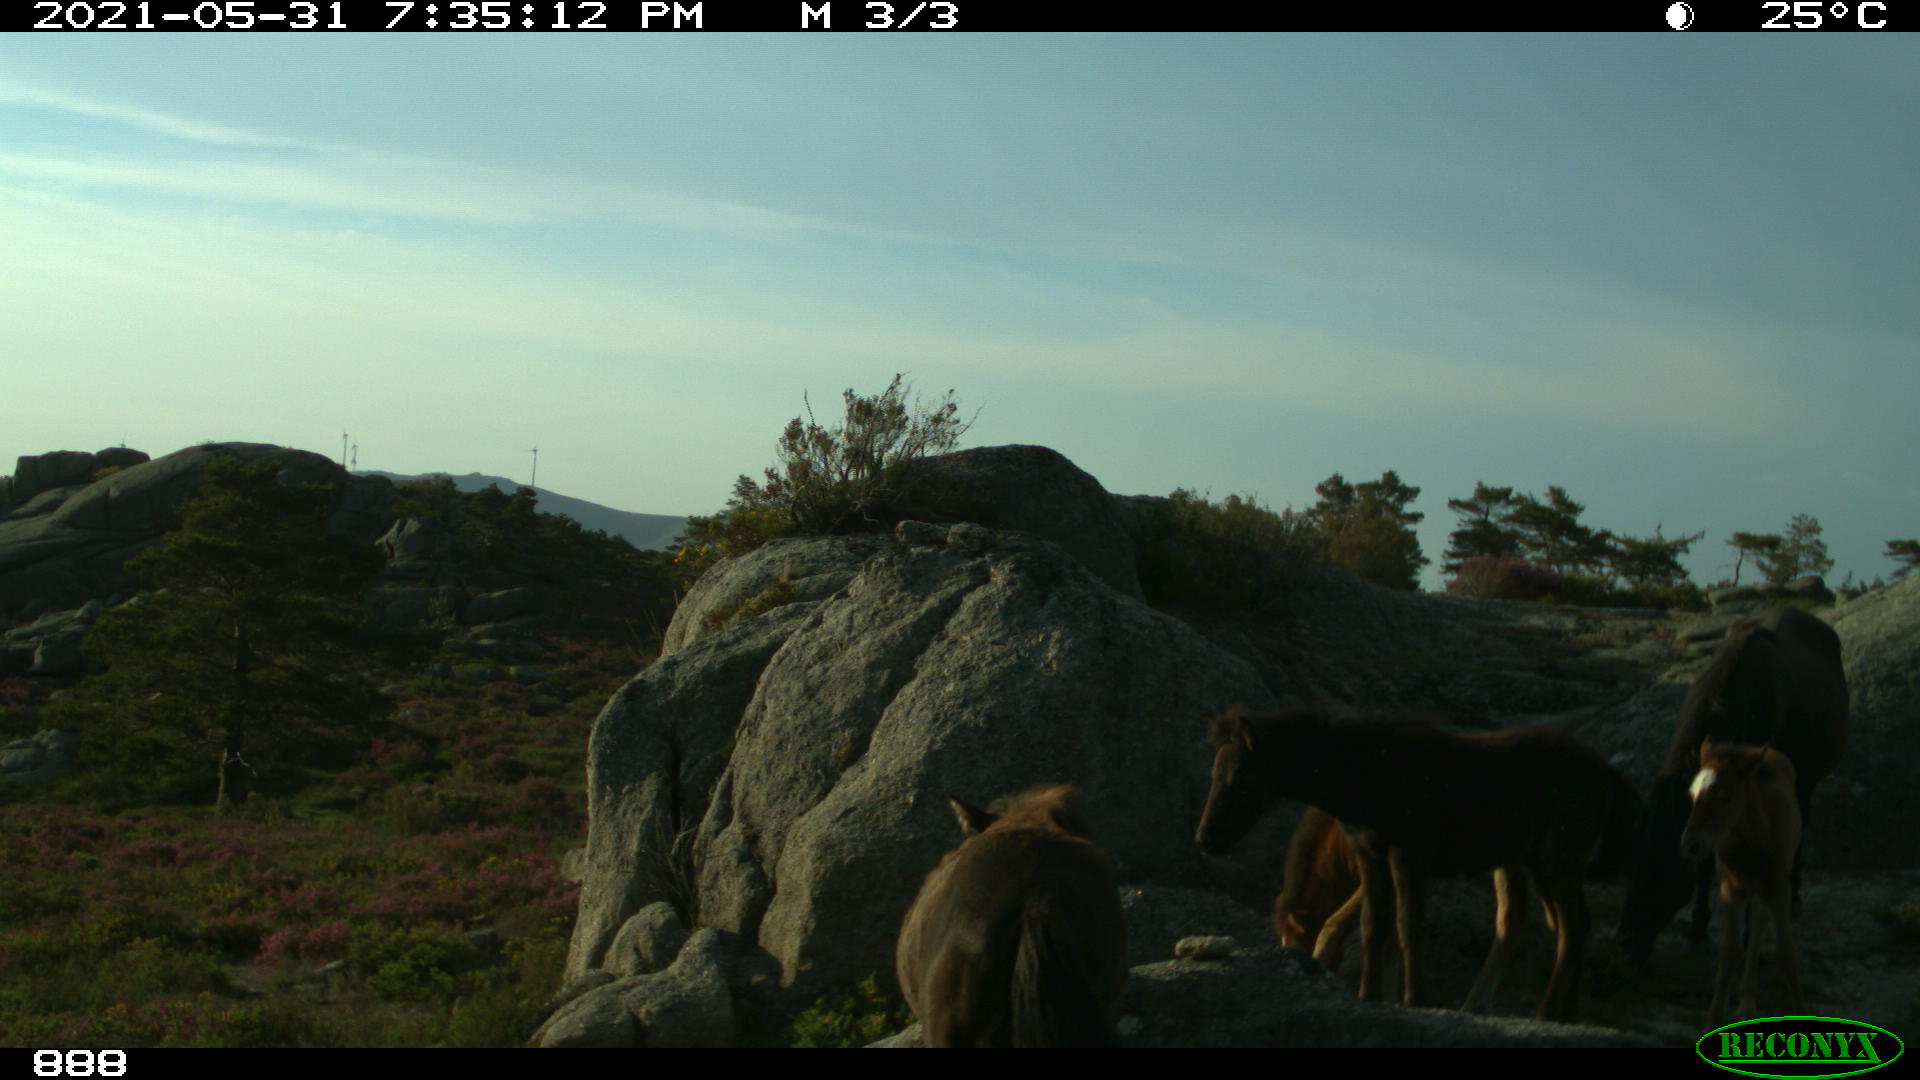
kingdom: Animalia
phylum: Chordata
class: Mammalia
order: Perissodactyla
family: Equidae
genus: Equus
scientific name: Equus caballus
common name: Horse
